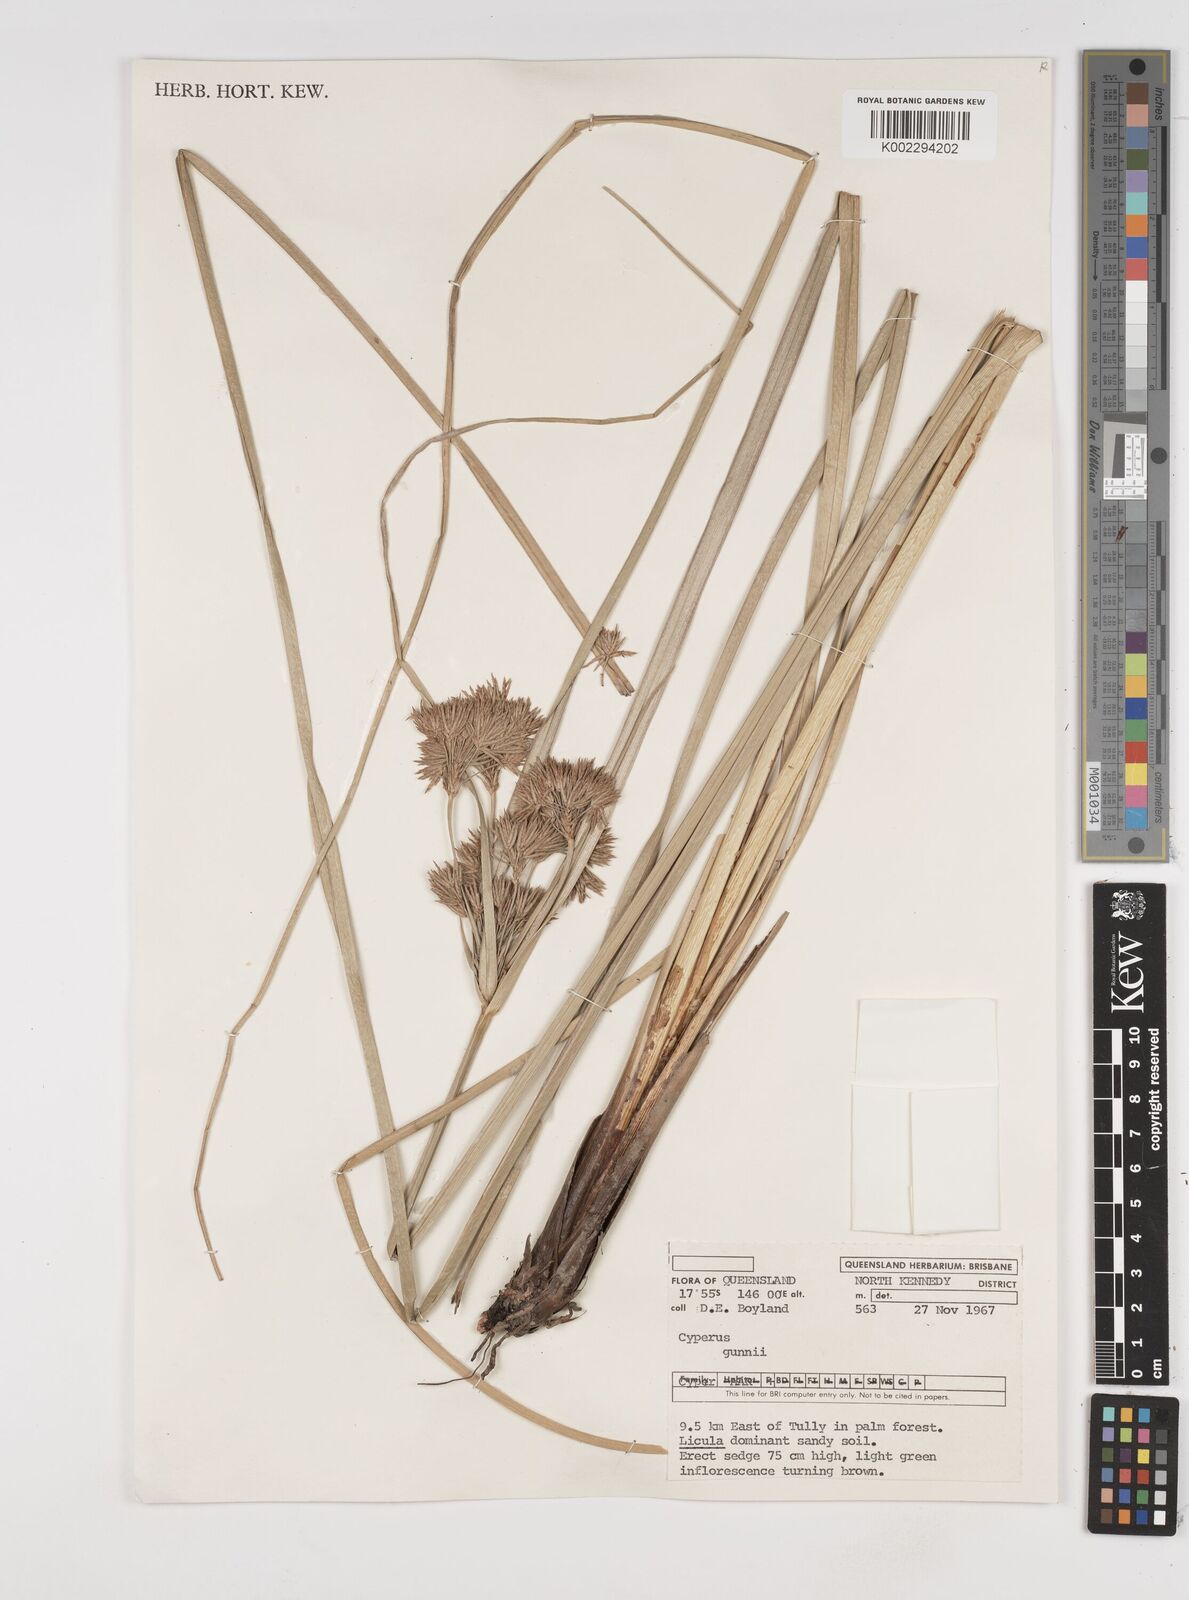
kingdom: Plantae
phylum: Tracheophyta
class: Liliopsida
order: Poales
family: Cyperaceae
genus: Cyperus
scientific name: Cyperus gunnii
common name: Flecked flat-sedge
